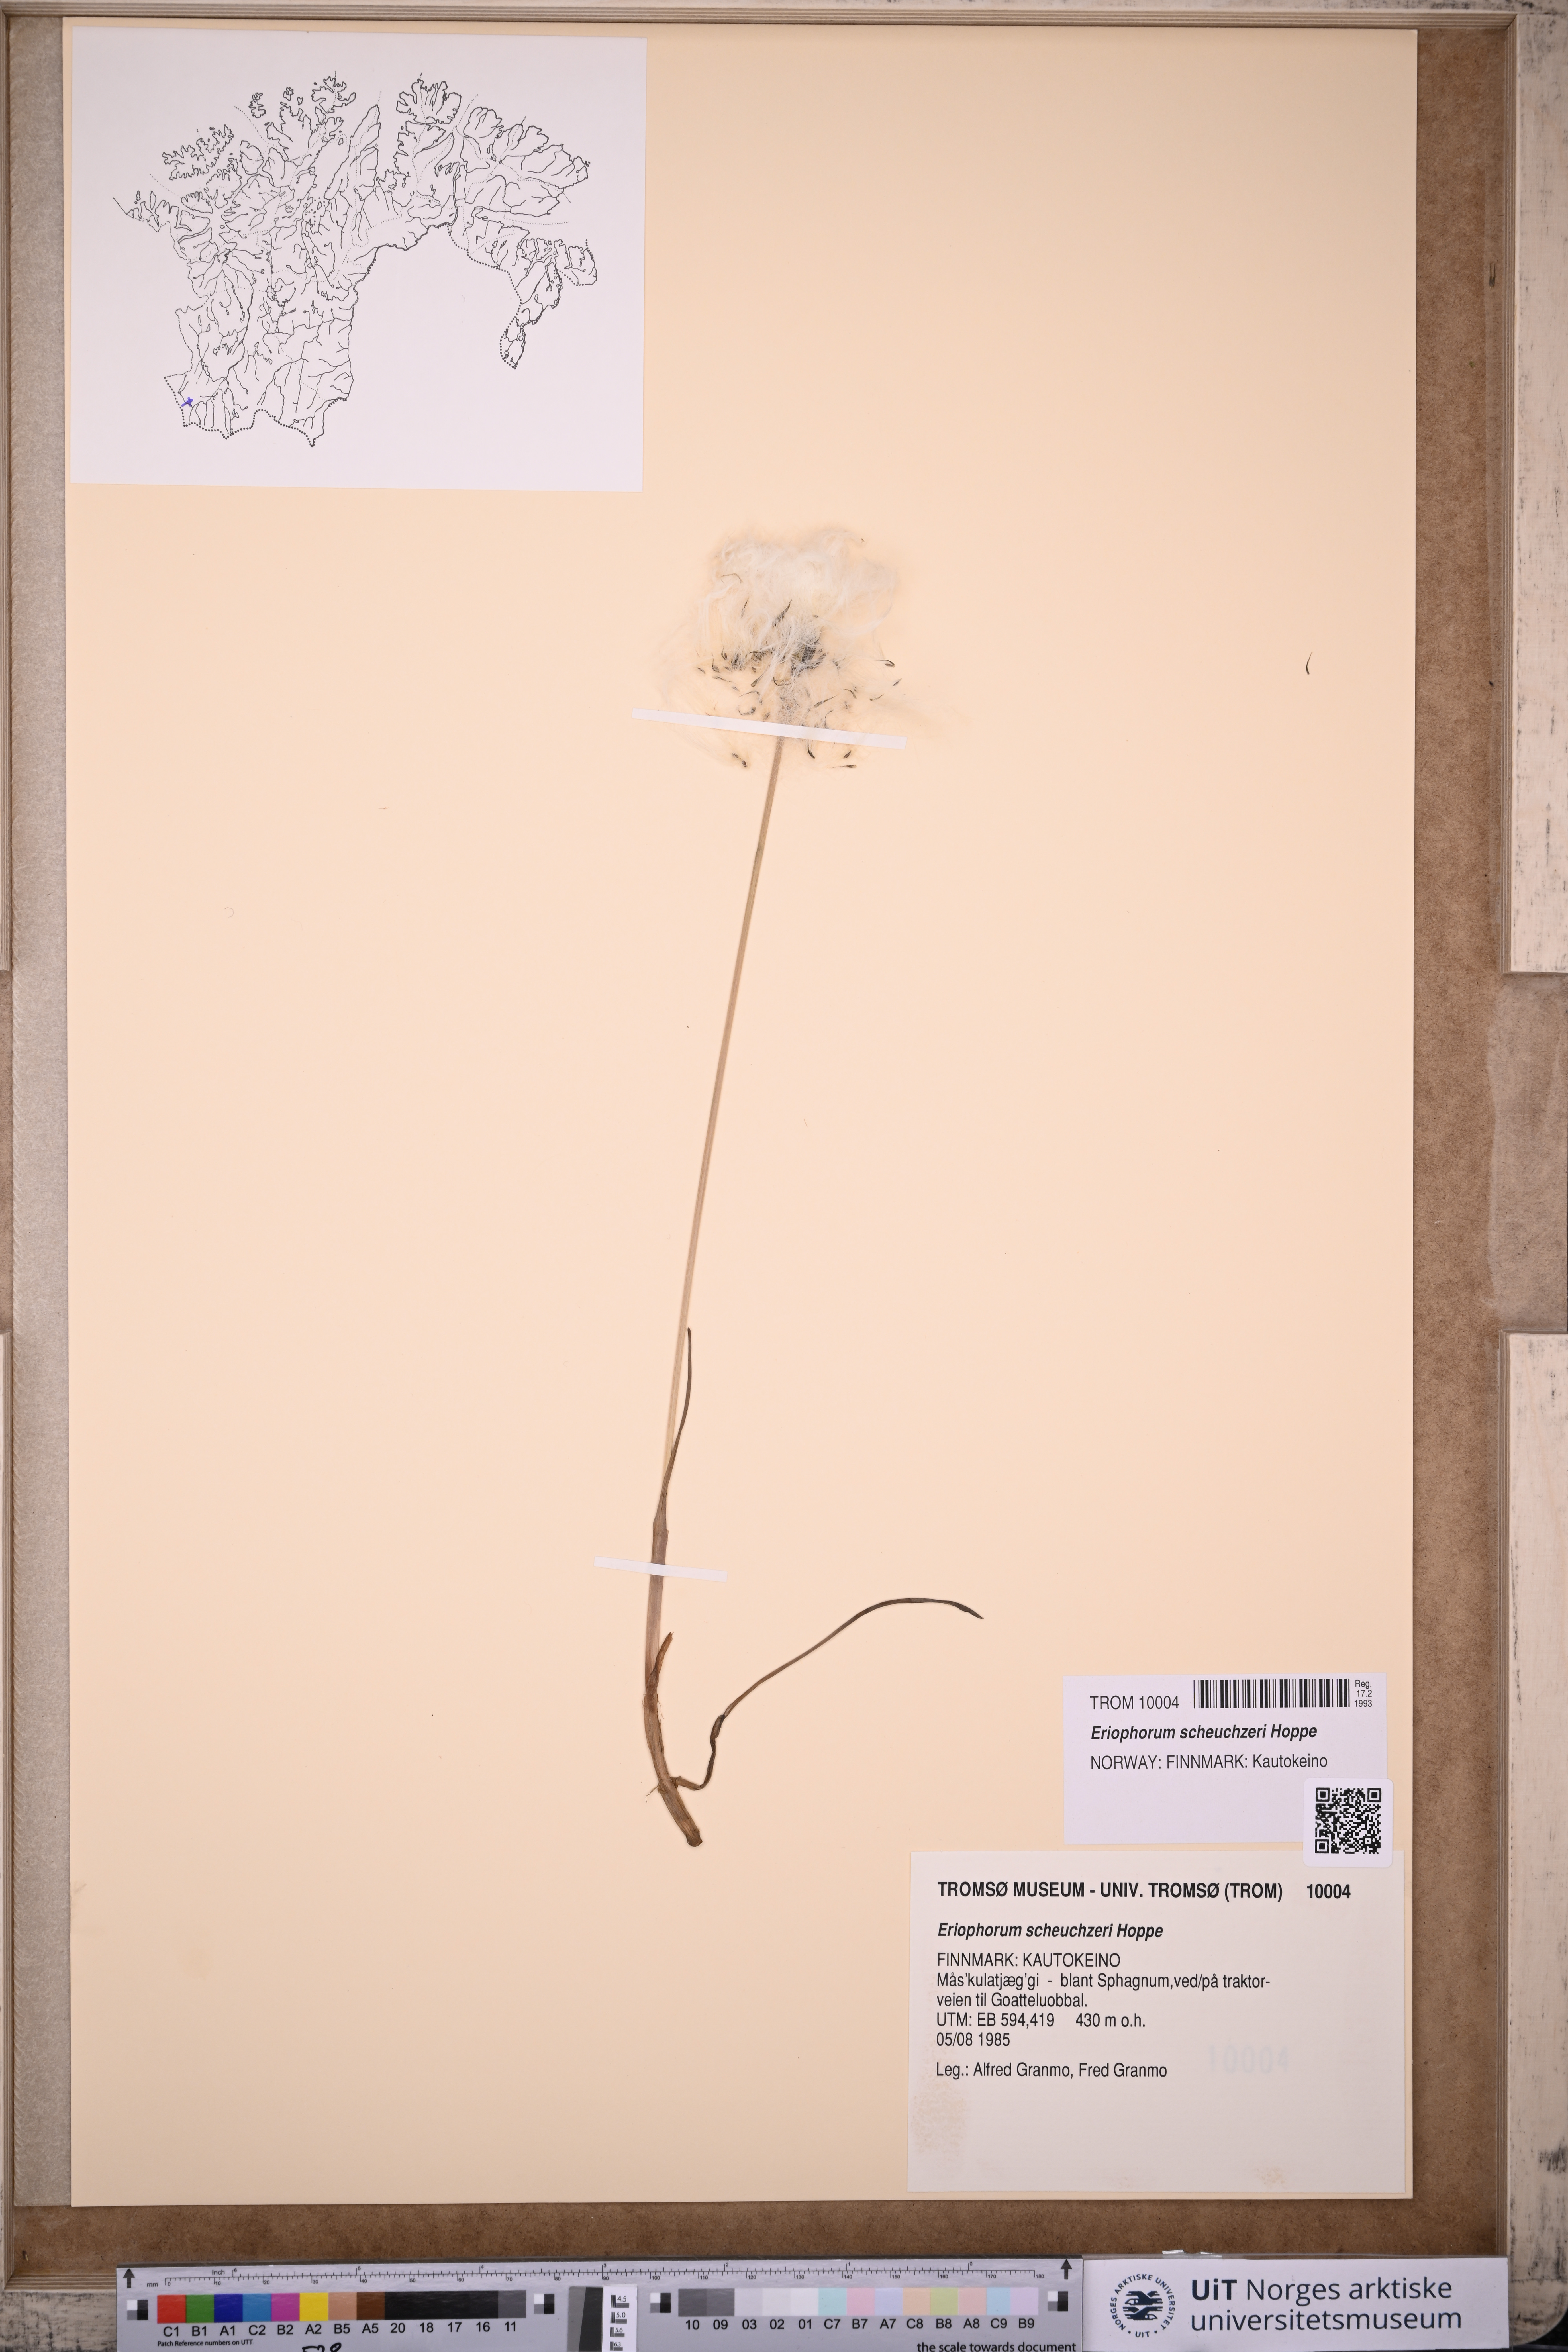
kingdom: Plantae
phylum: Tracheophyta
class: Liliopsida
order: Poales
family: Cyperaceae
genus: Eriophorum
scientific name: Eriophorum scheuchzeri
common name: Scheuchzer's cottongrass
